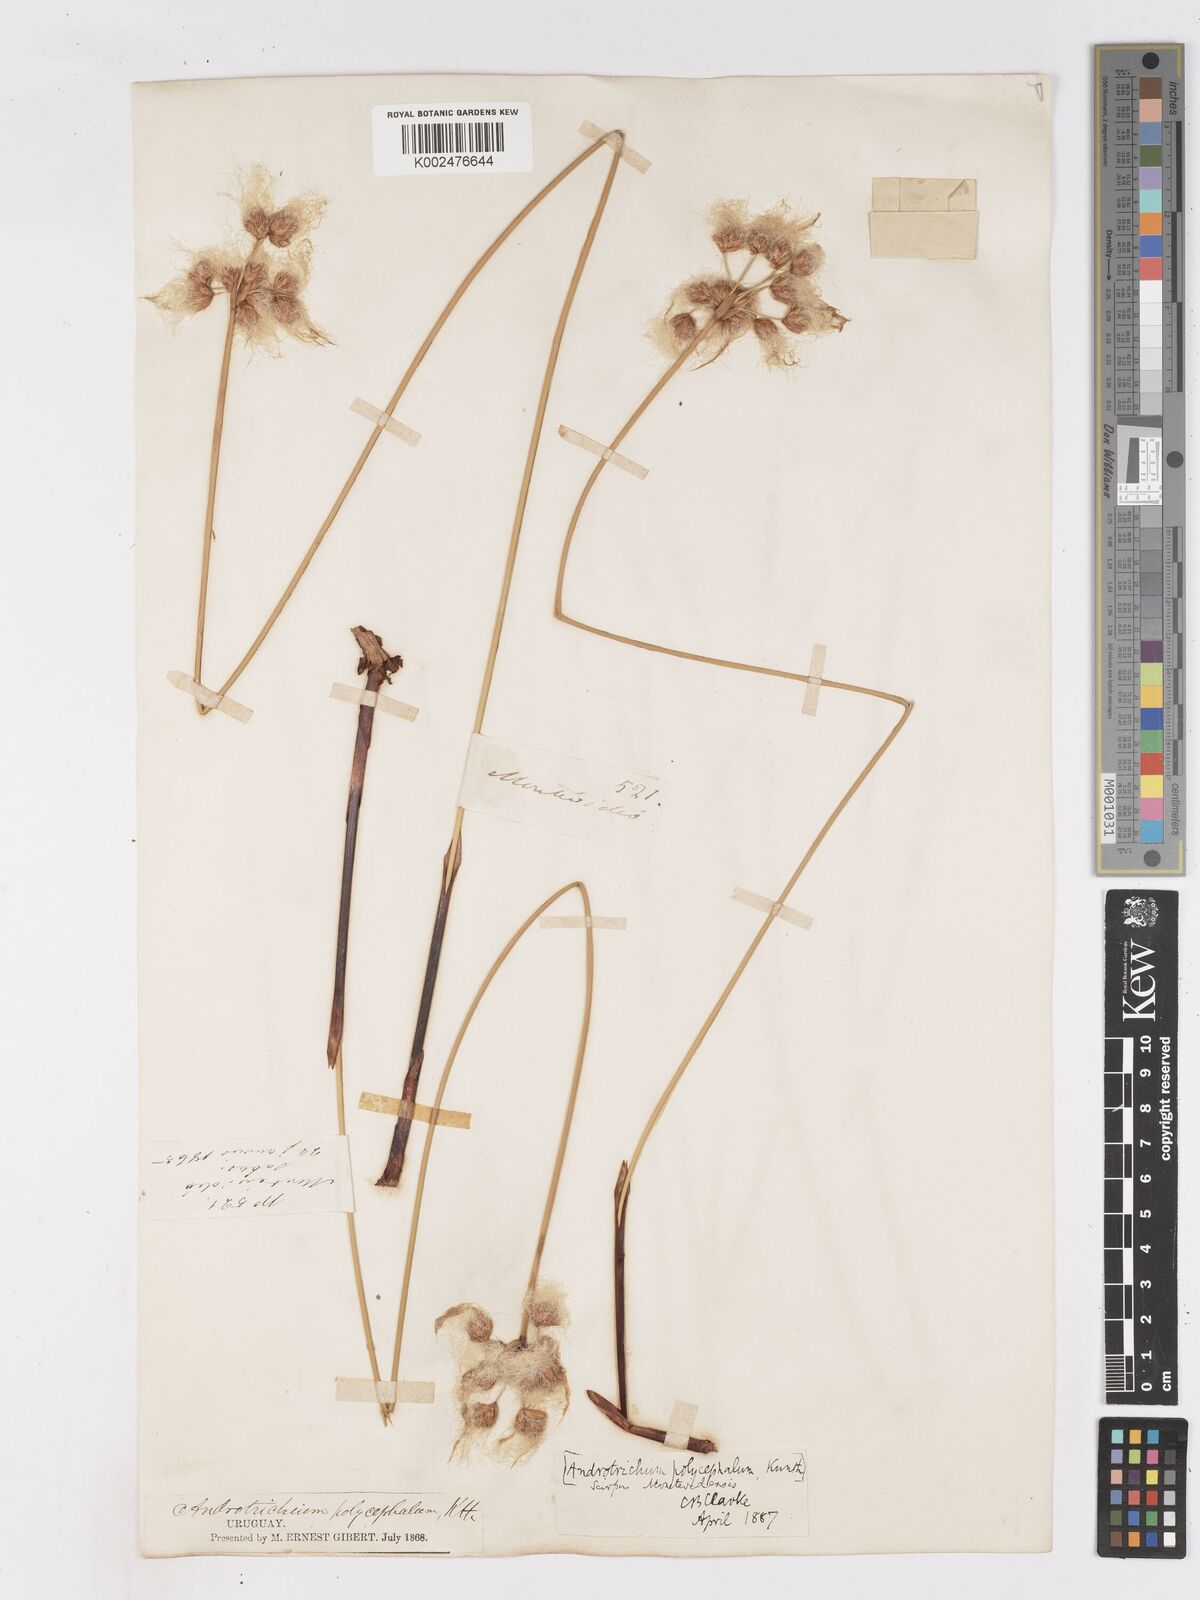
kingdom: Plantae
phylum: Tracheophyta
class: Liliopsida
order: Poales
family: Cyperaceae
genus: Cyperus
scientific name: Cyperus trigynus
